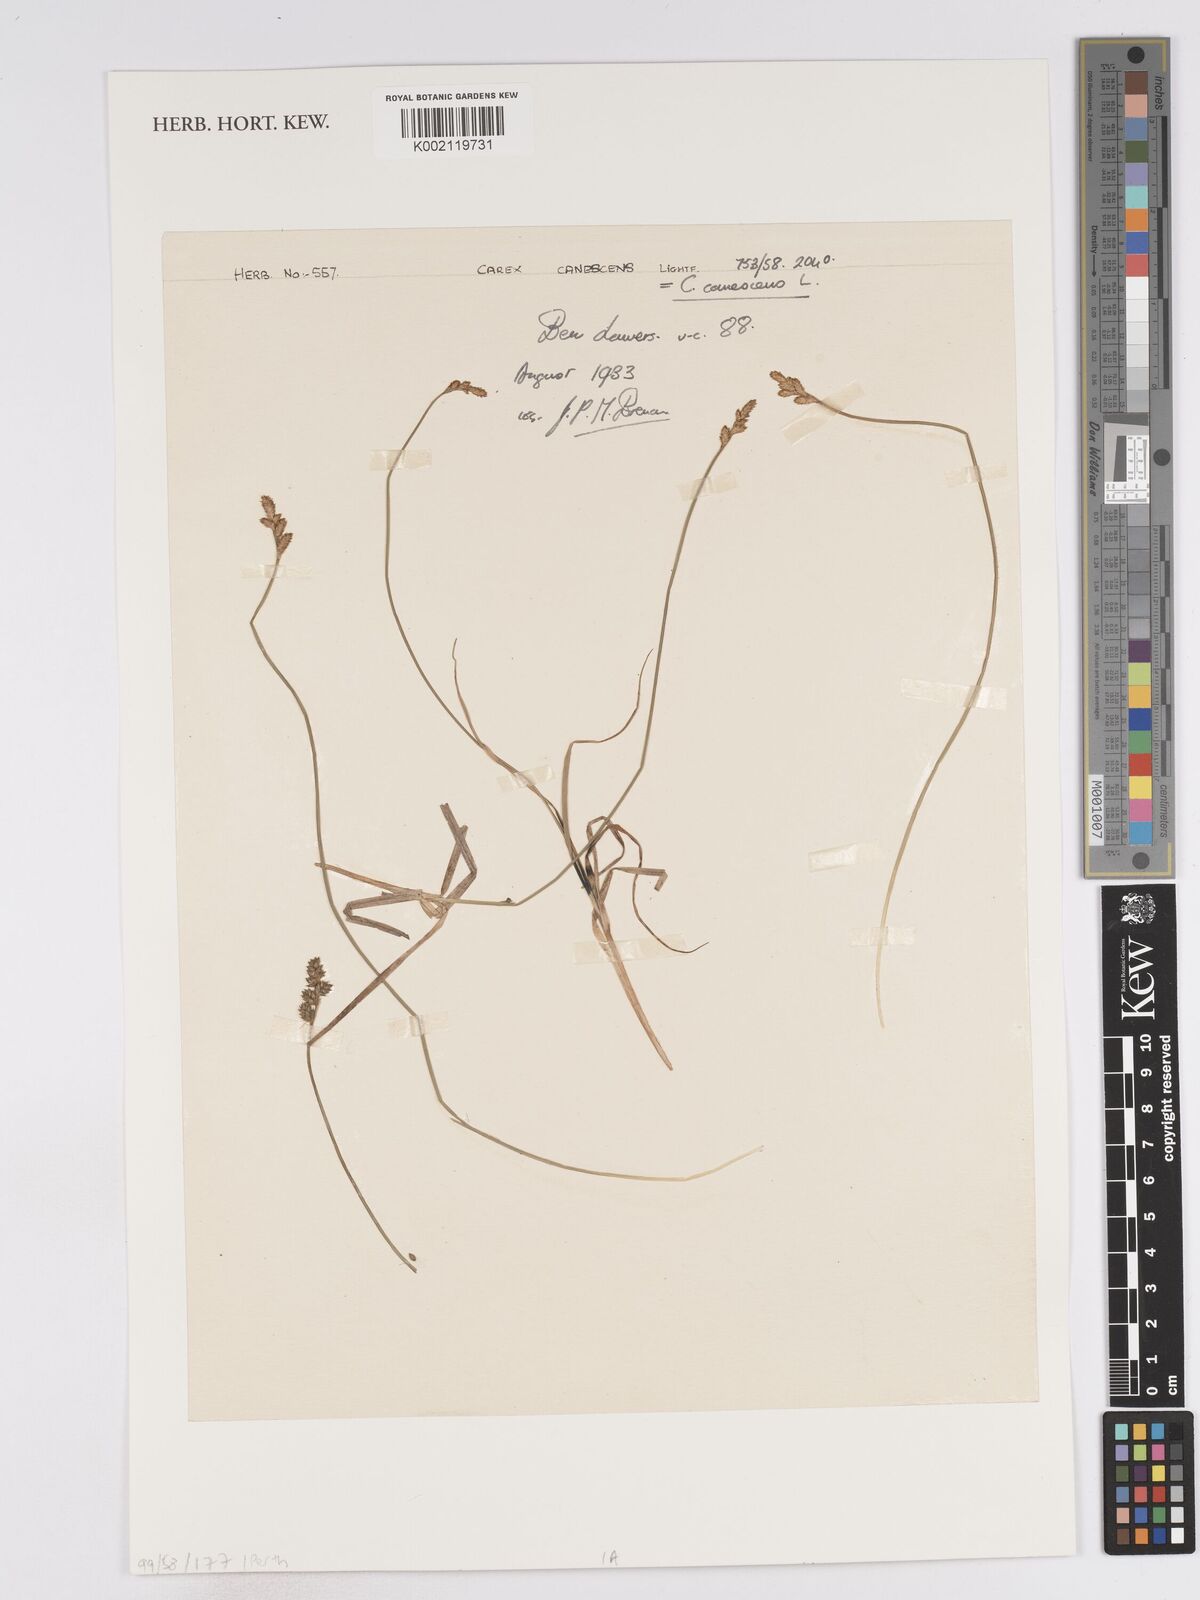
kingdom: Plantae
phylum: Tracheophyta
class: Liliopsida
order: Poales
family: Cyperaceae
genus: Carex
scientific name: Carex curta
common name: White sedge
